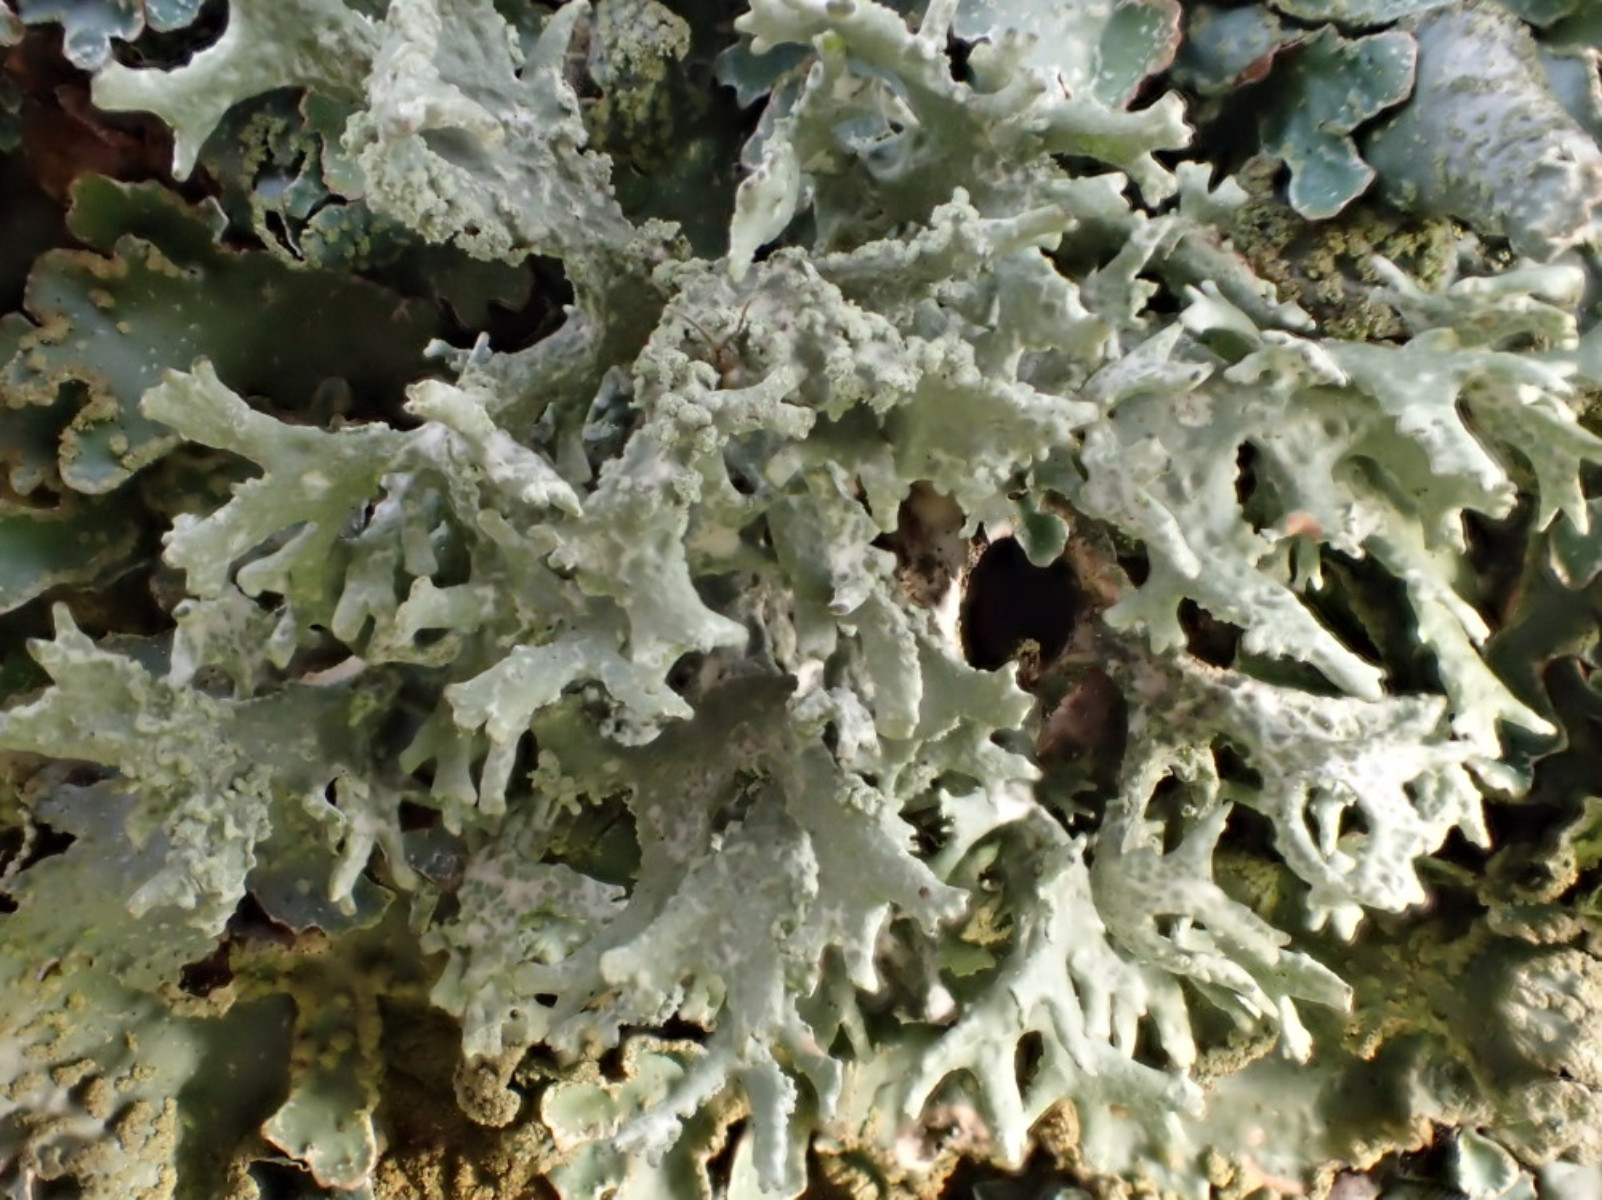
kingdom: Fungi
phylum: Ascomycota
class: Lecanoromycetes
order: Lecanorales
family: Parmeliaceae
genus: Evernia
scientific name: Evernia prunastri
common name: almindelig slåenlav
